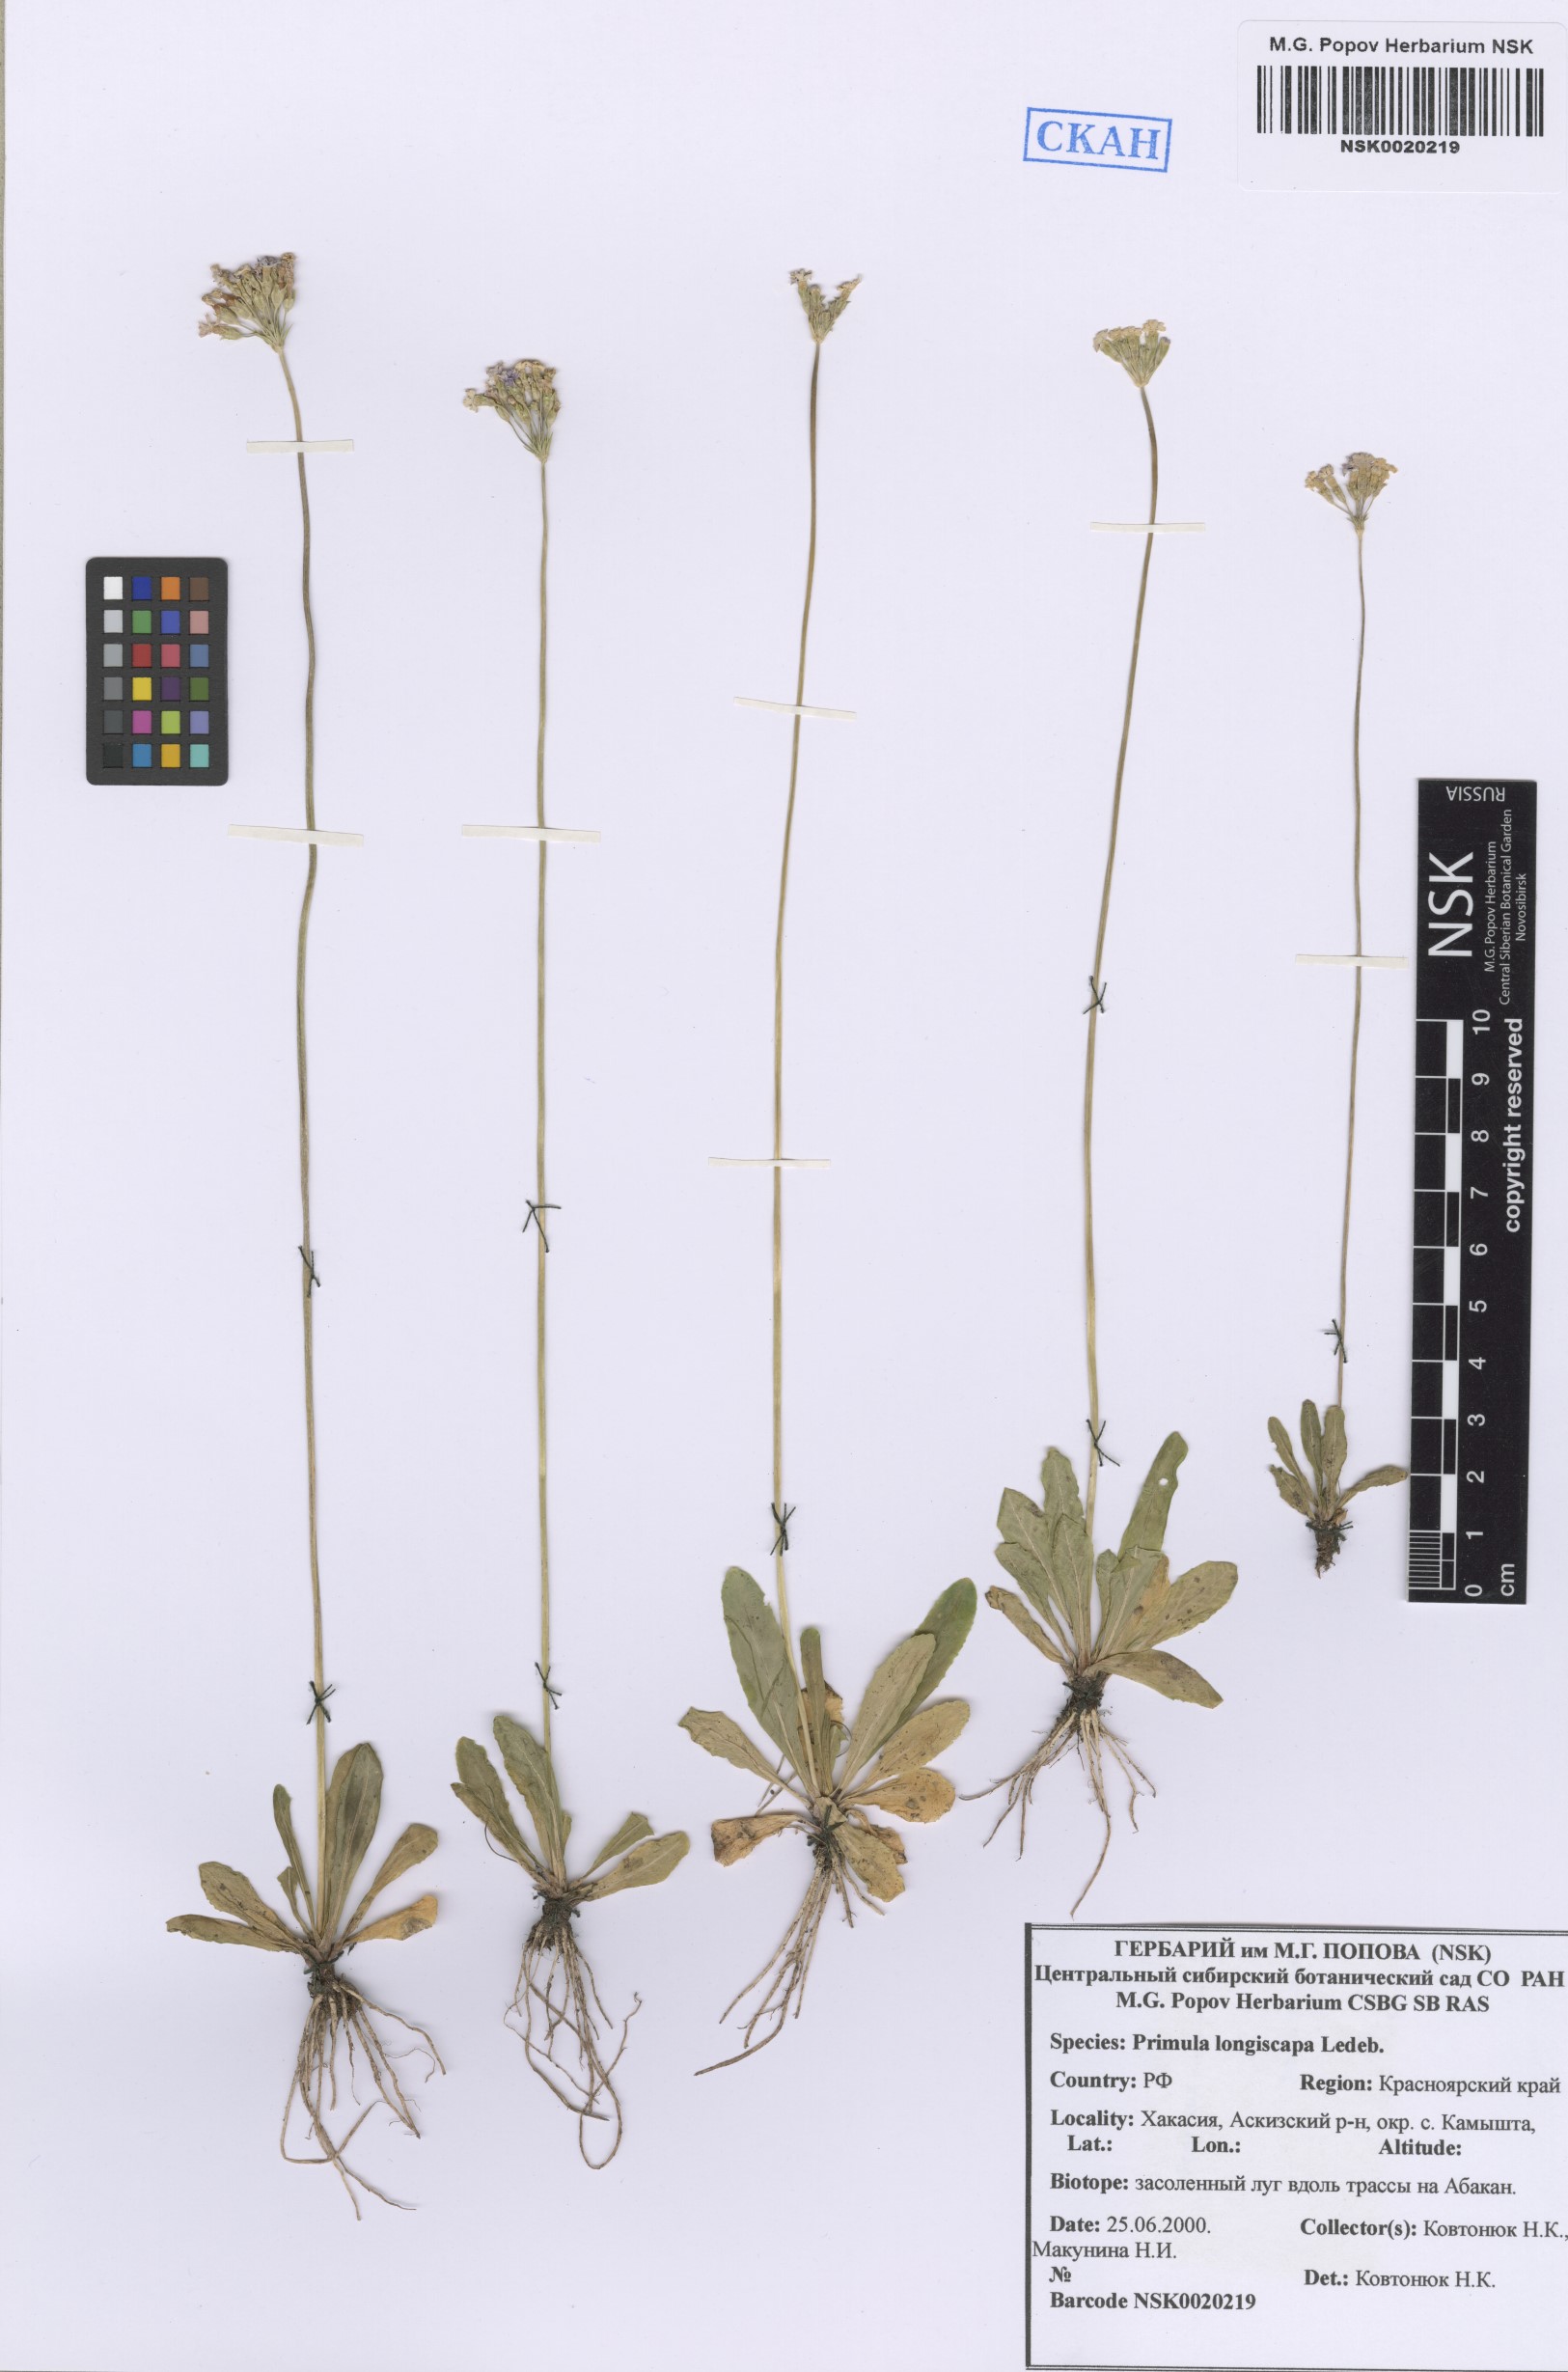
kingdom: Plantae
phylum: Tracheophyta
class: Magnoliopsida
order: Ericales
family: Primulaceae
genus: Primula
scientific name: Primula longiscapa
